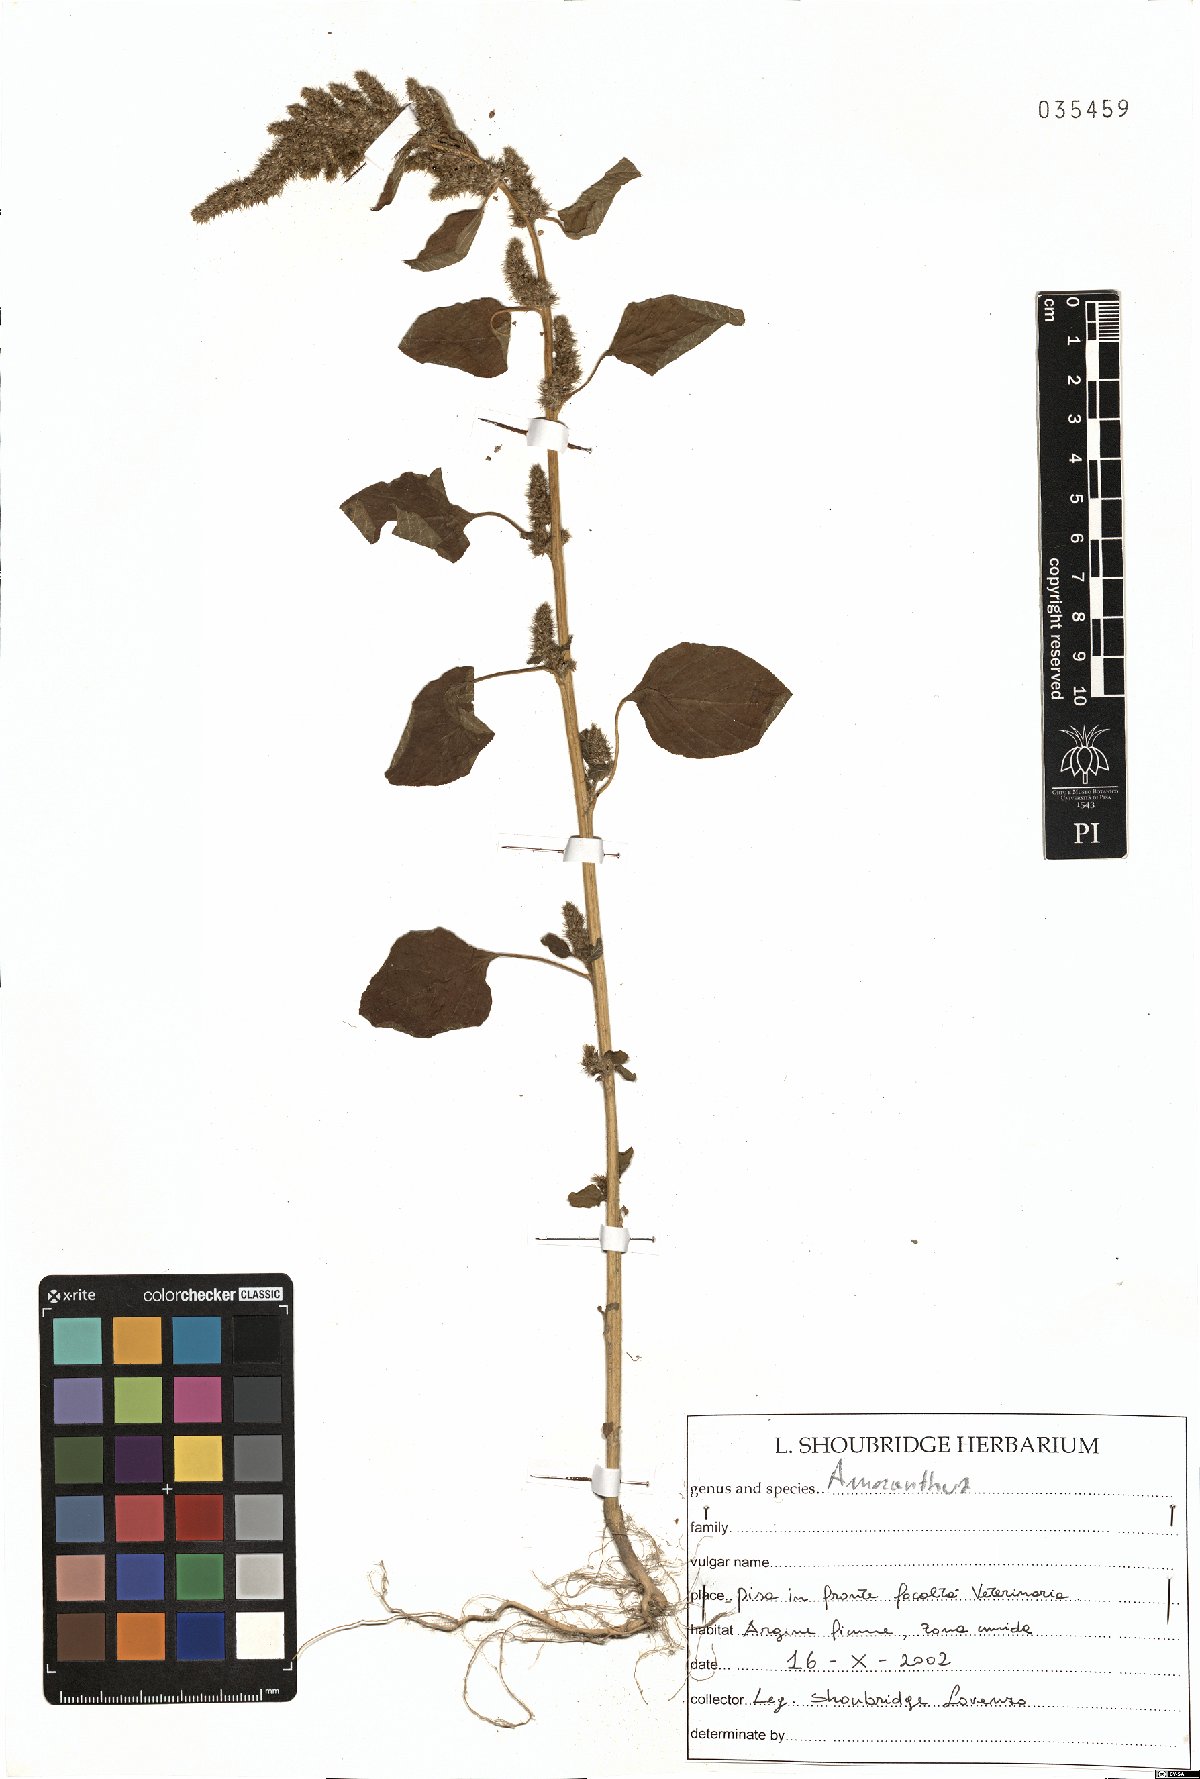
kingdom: Plantae
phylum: Tracheophyta
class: Magnoliopsida
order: Caryophyllales
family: Amaranthaceae
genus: Amaranthus
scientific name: Amaranthus
